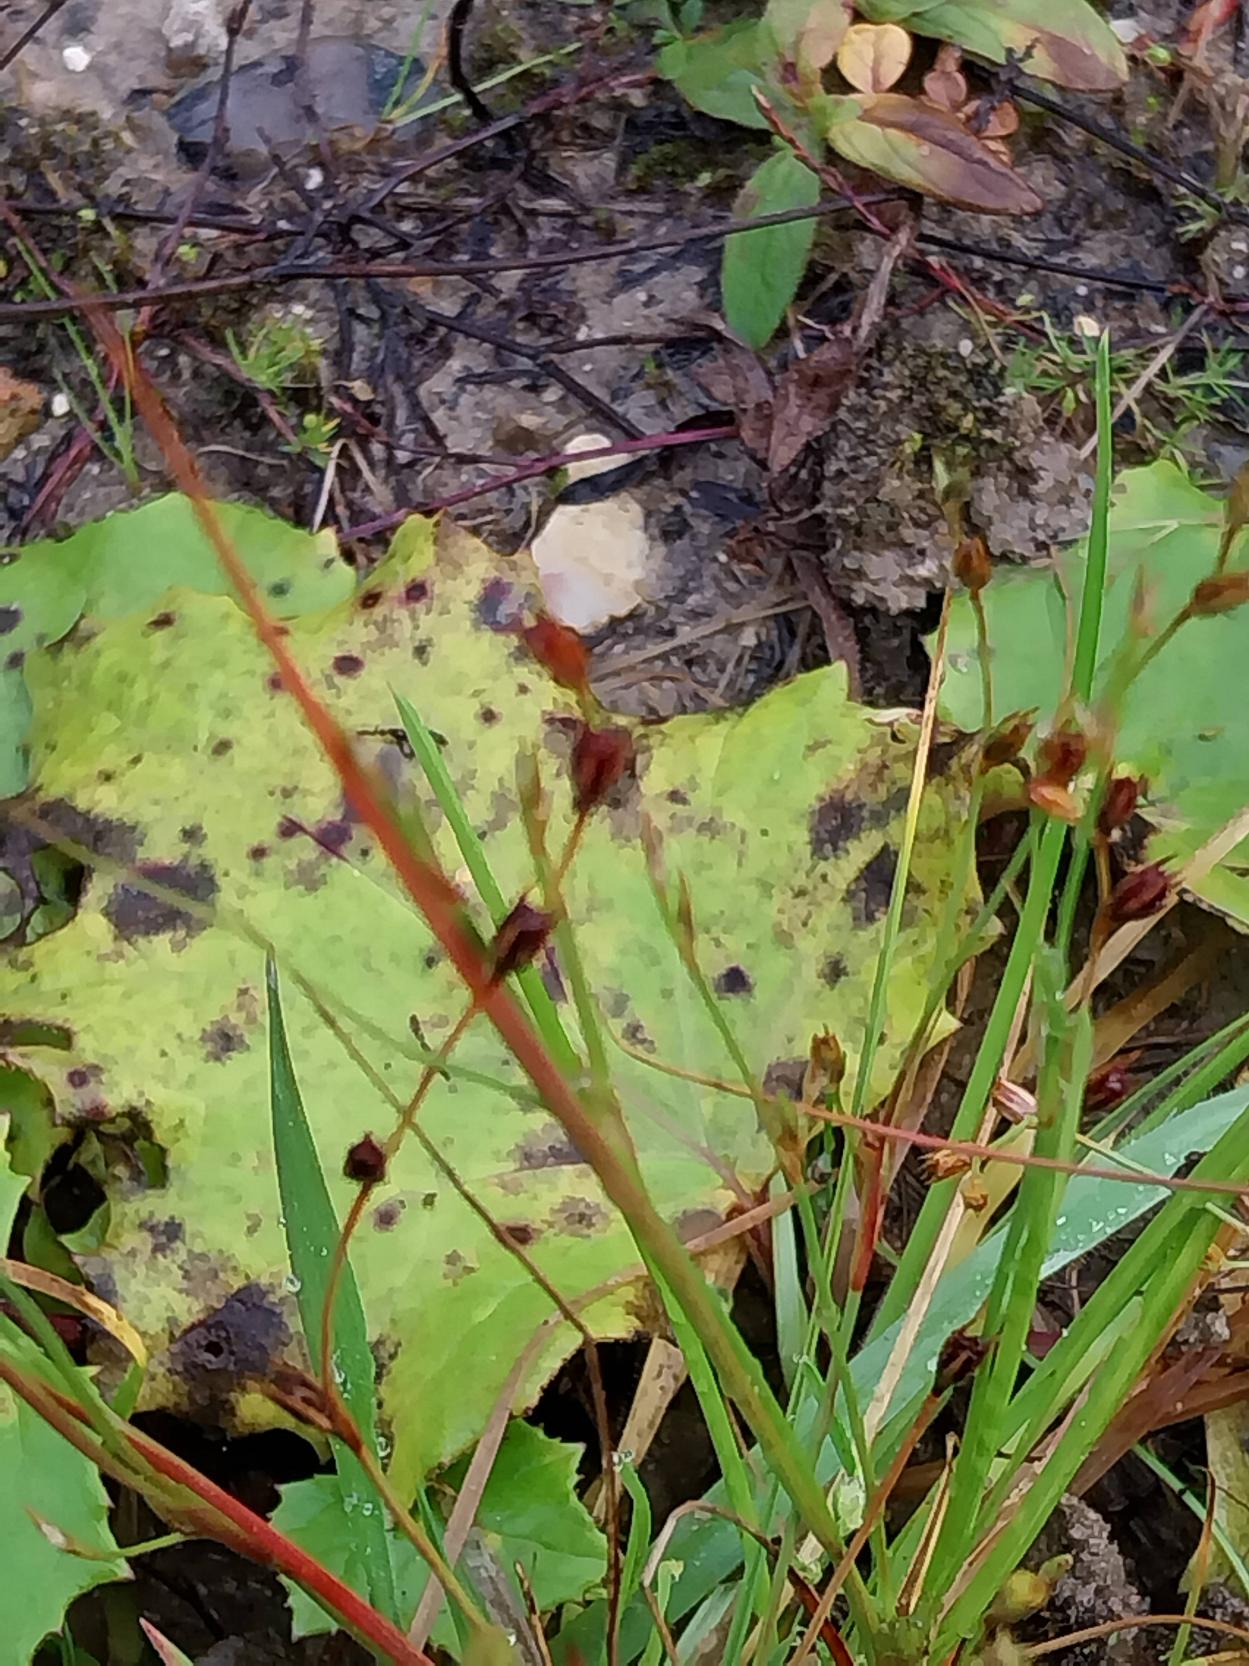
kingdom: Plantae
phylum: Tracheophyta
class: Liliopsida
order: Poales
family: Juncaceae
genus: Juncus
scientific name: Juncus bufonius
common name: Tudse-siv
